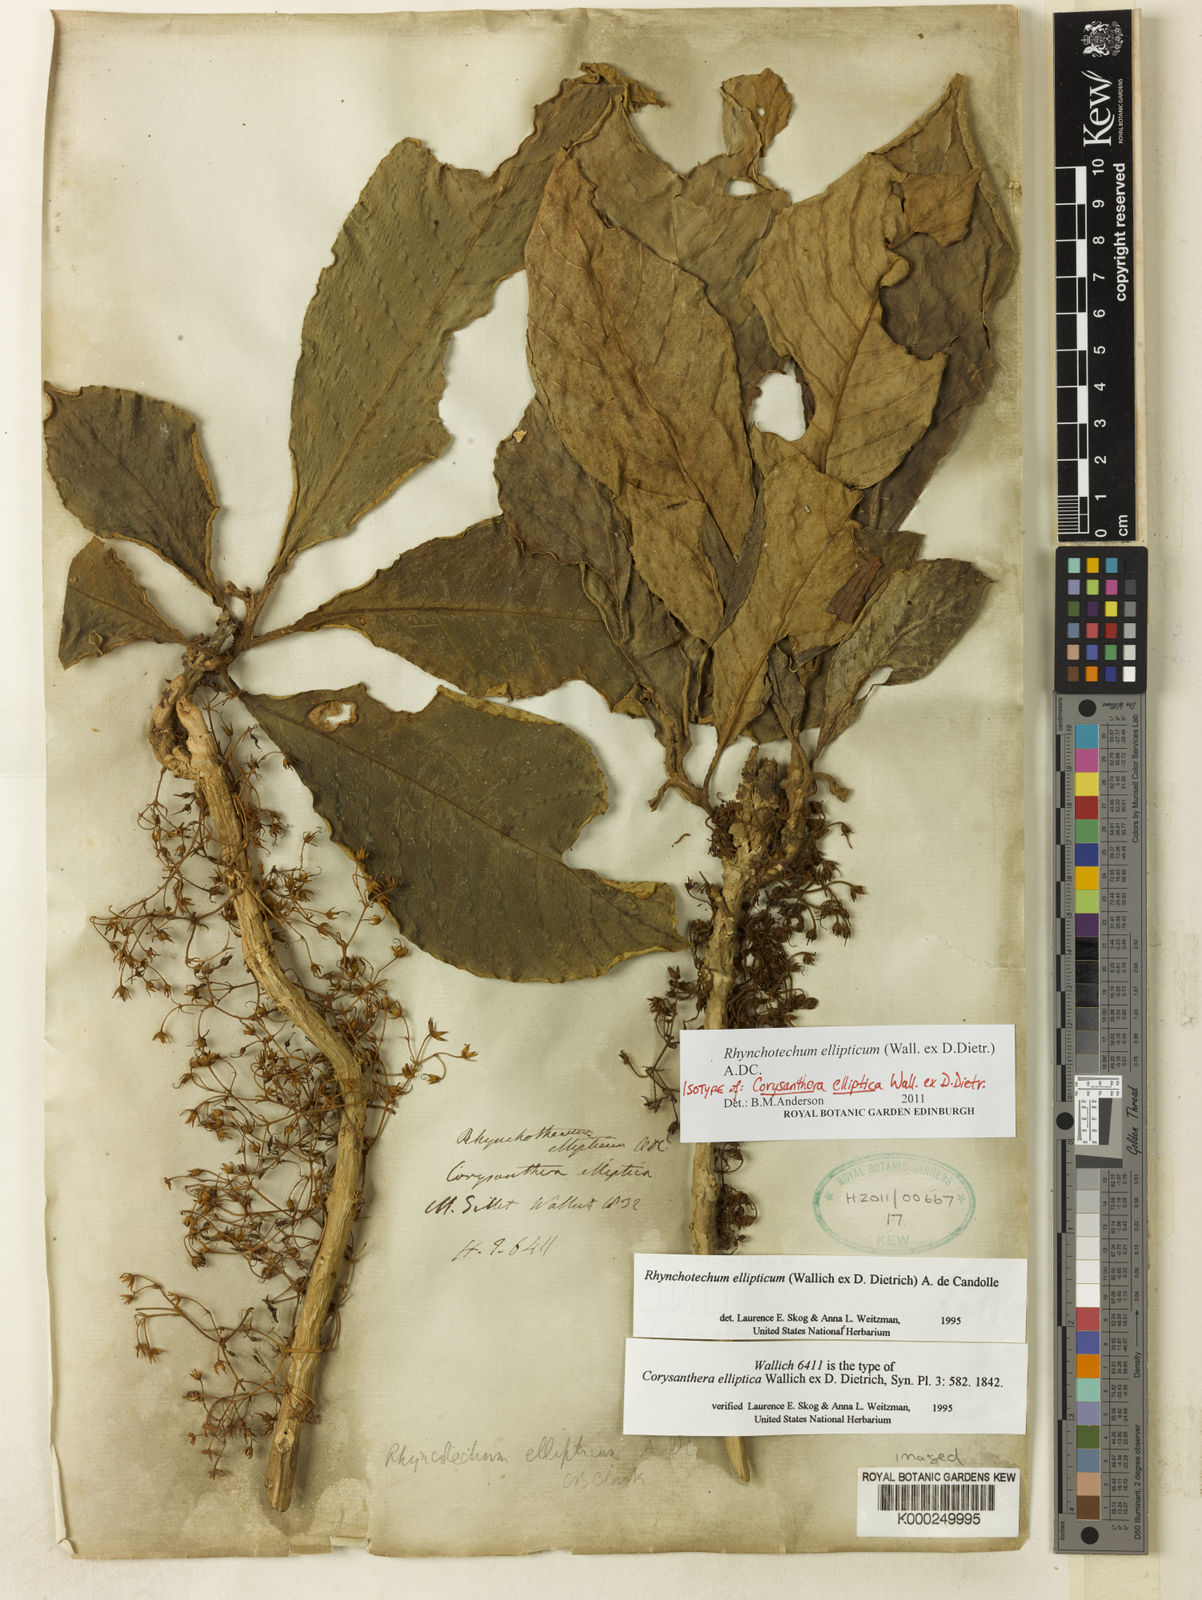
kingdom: Plantae
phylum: Tracheophyta
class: Magnoliopsida
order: Lamiales
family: Gesneriaceae
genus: Rhynchotechum
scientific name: Rhynchotechum ellipticum
